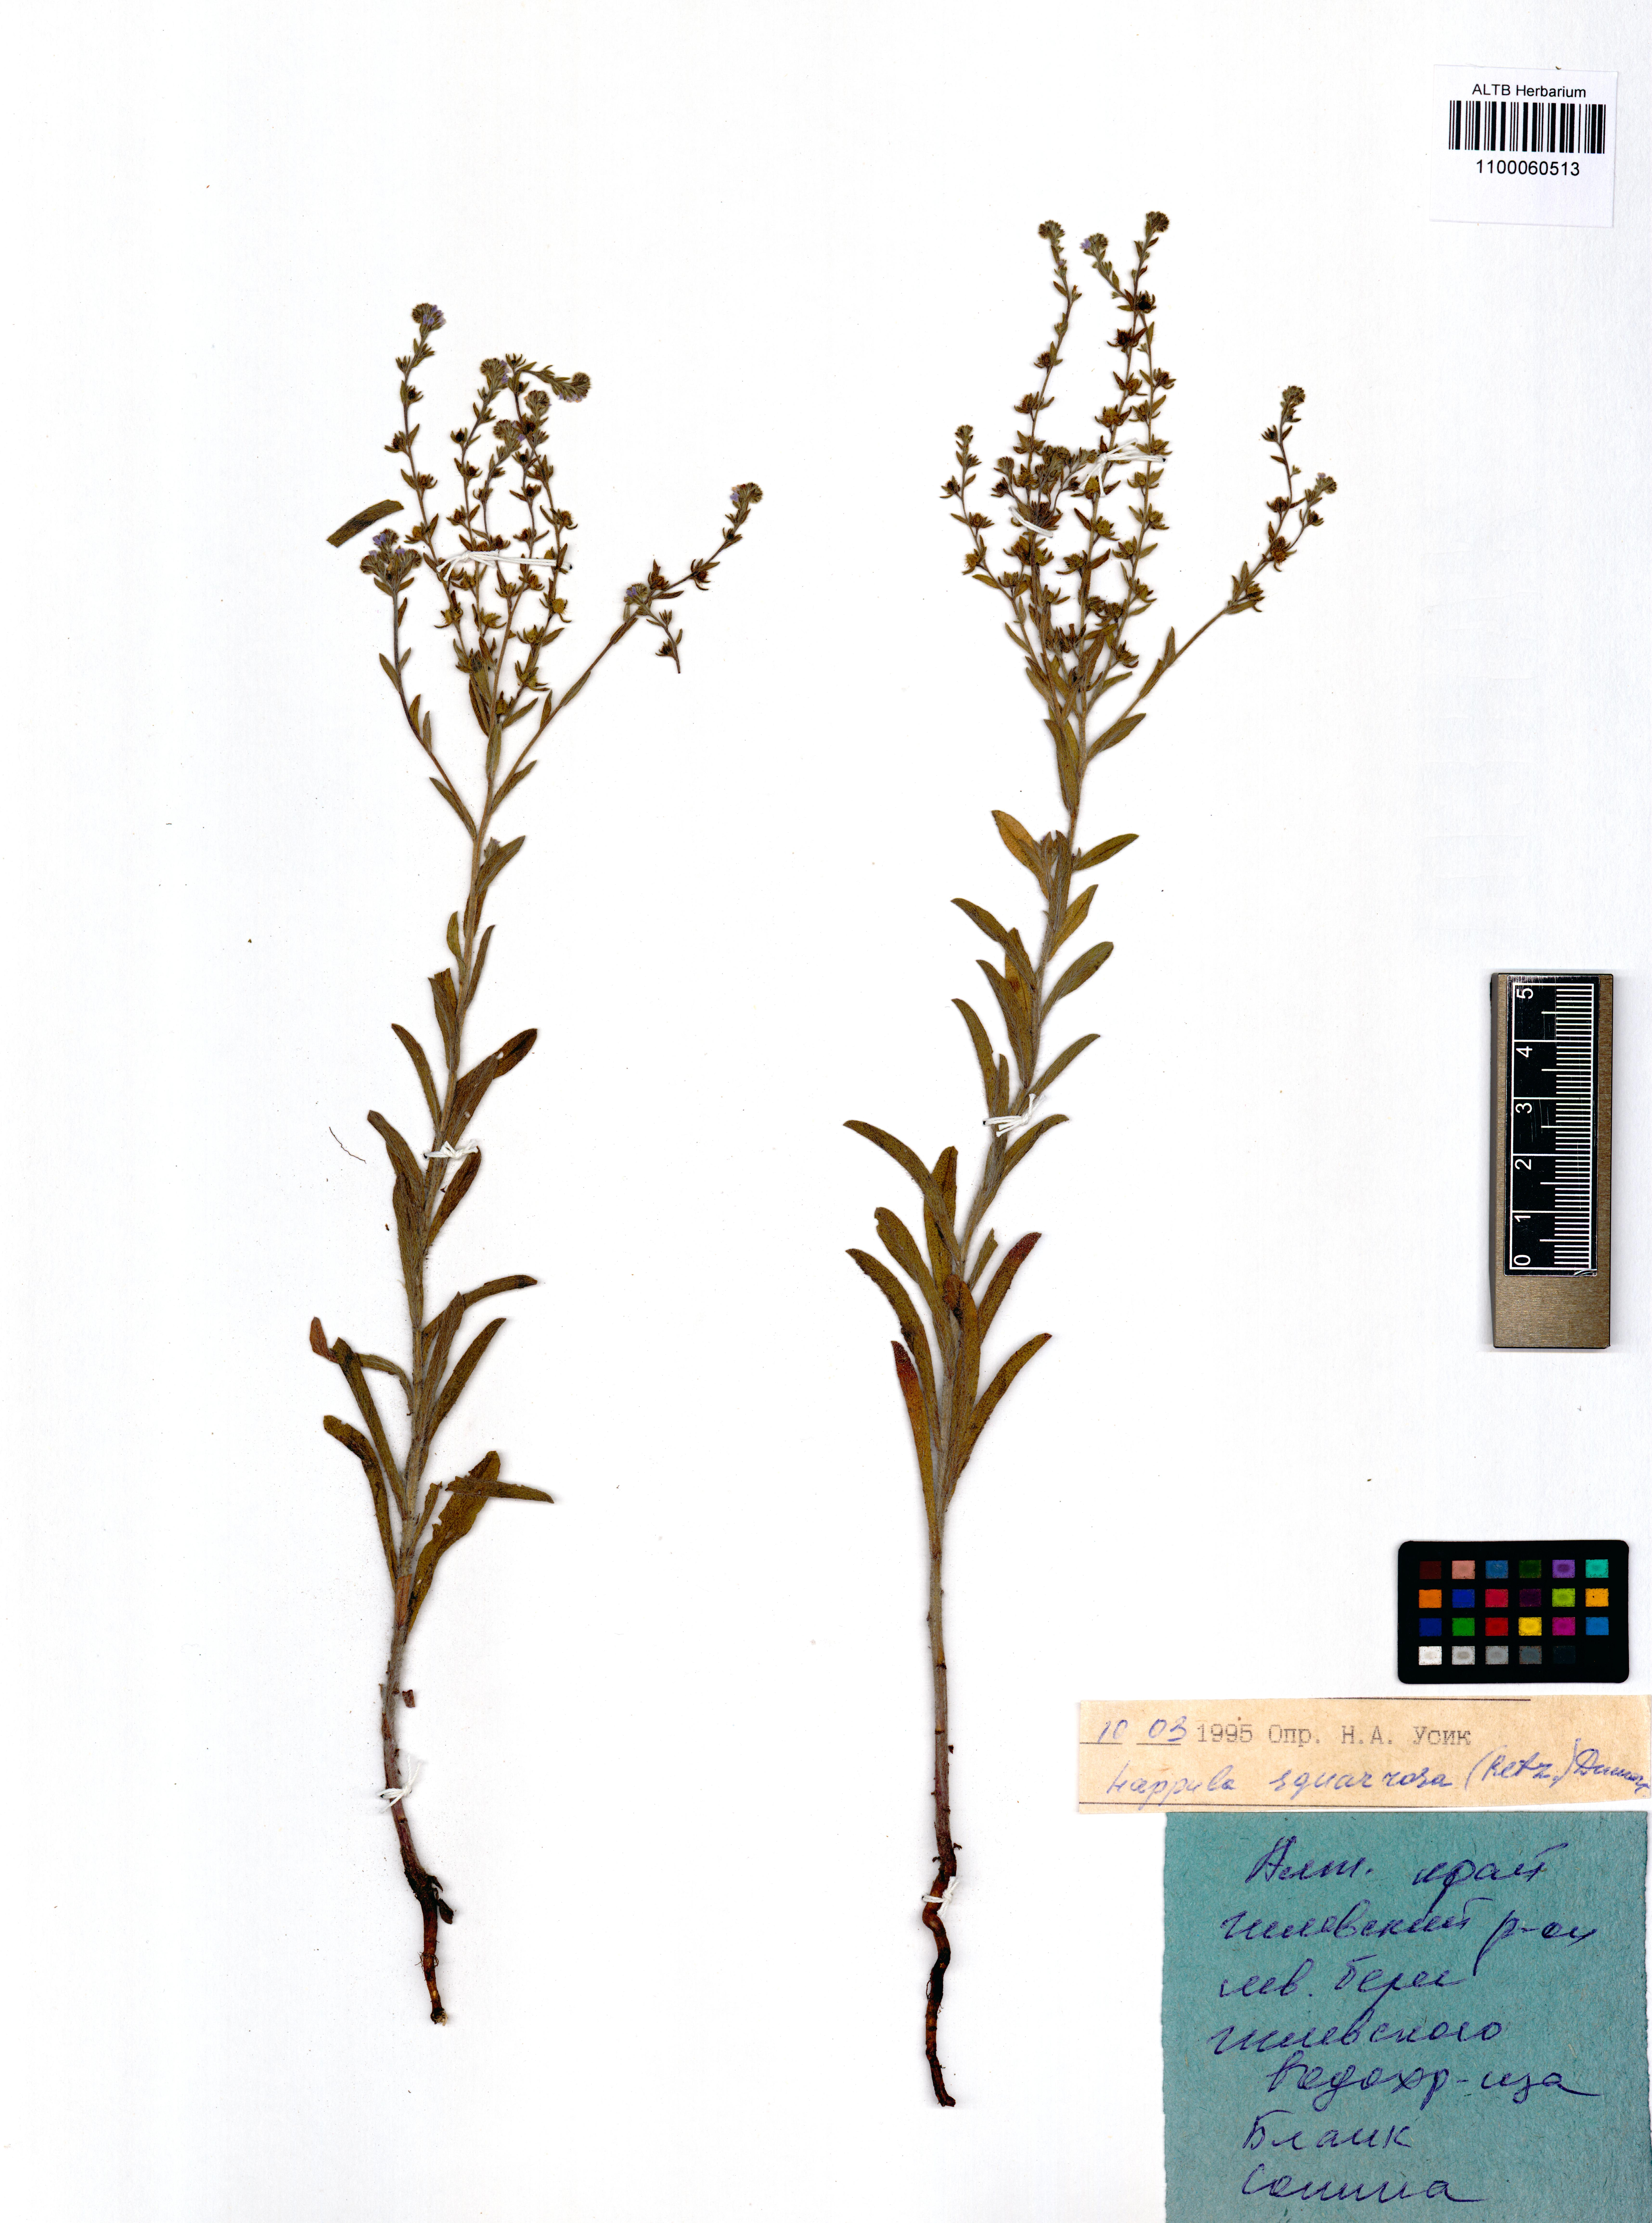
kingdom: Plantae
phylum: Tracheophyta
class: Magnoliopsida
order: Boraginales
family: Boraginaceae
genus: Lappula
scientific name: Lappula squarrosa
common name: European stickseed
